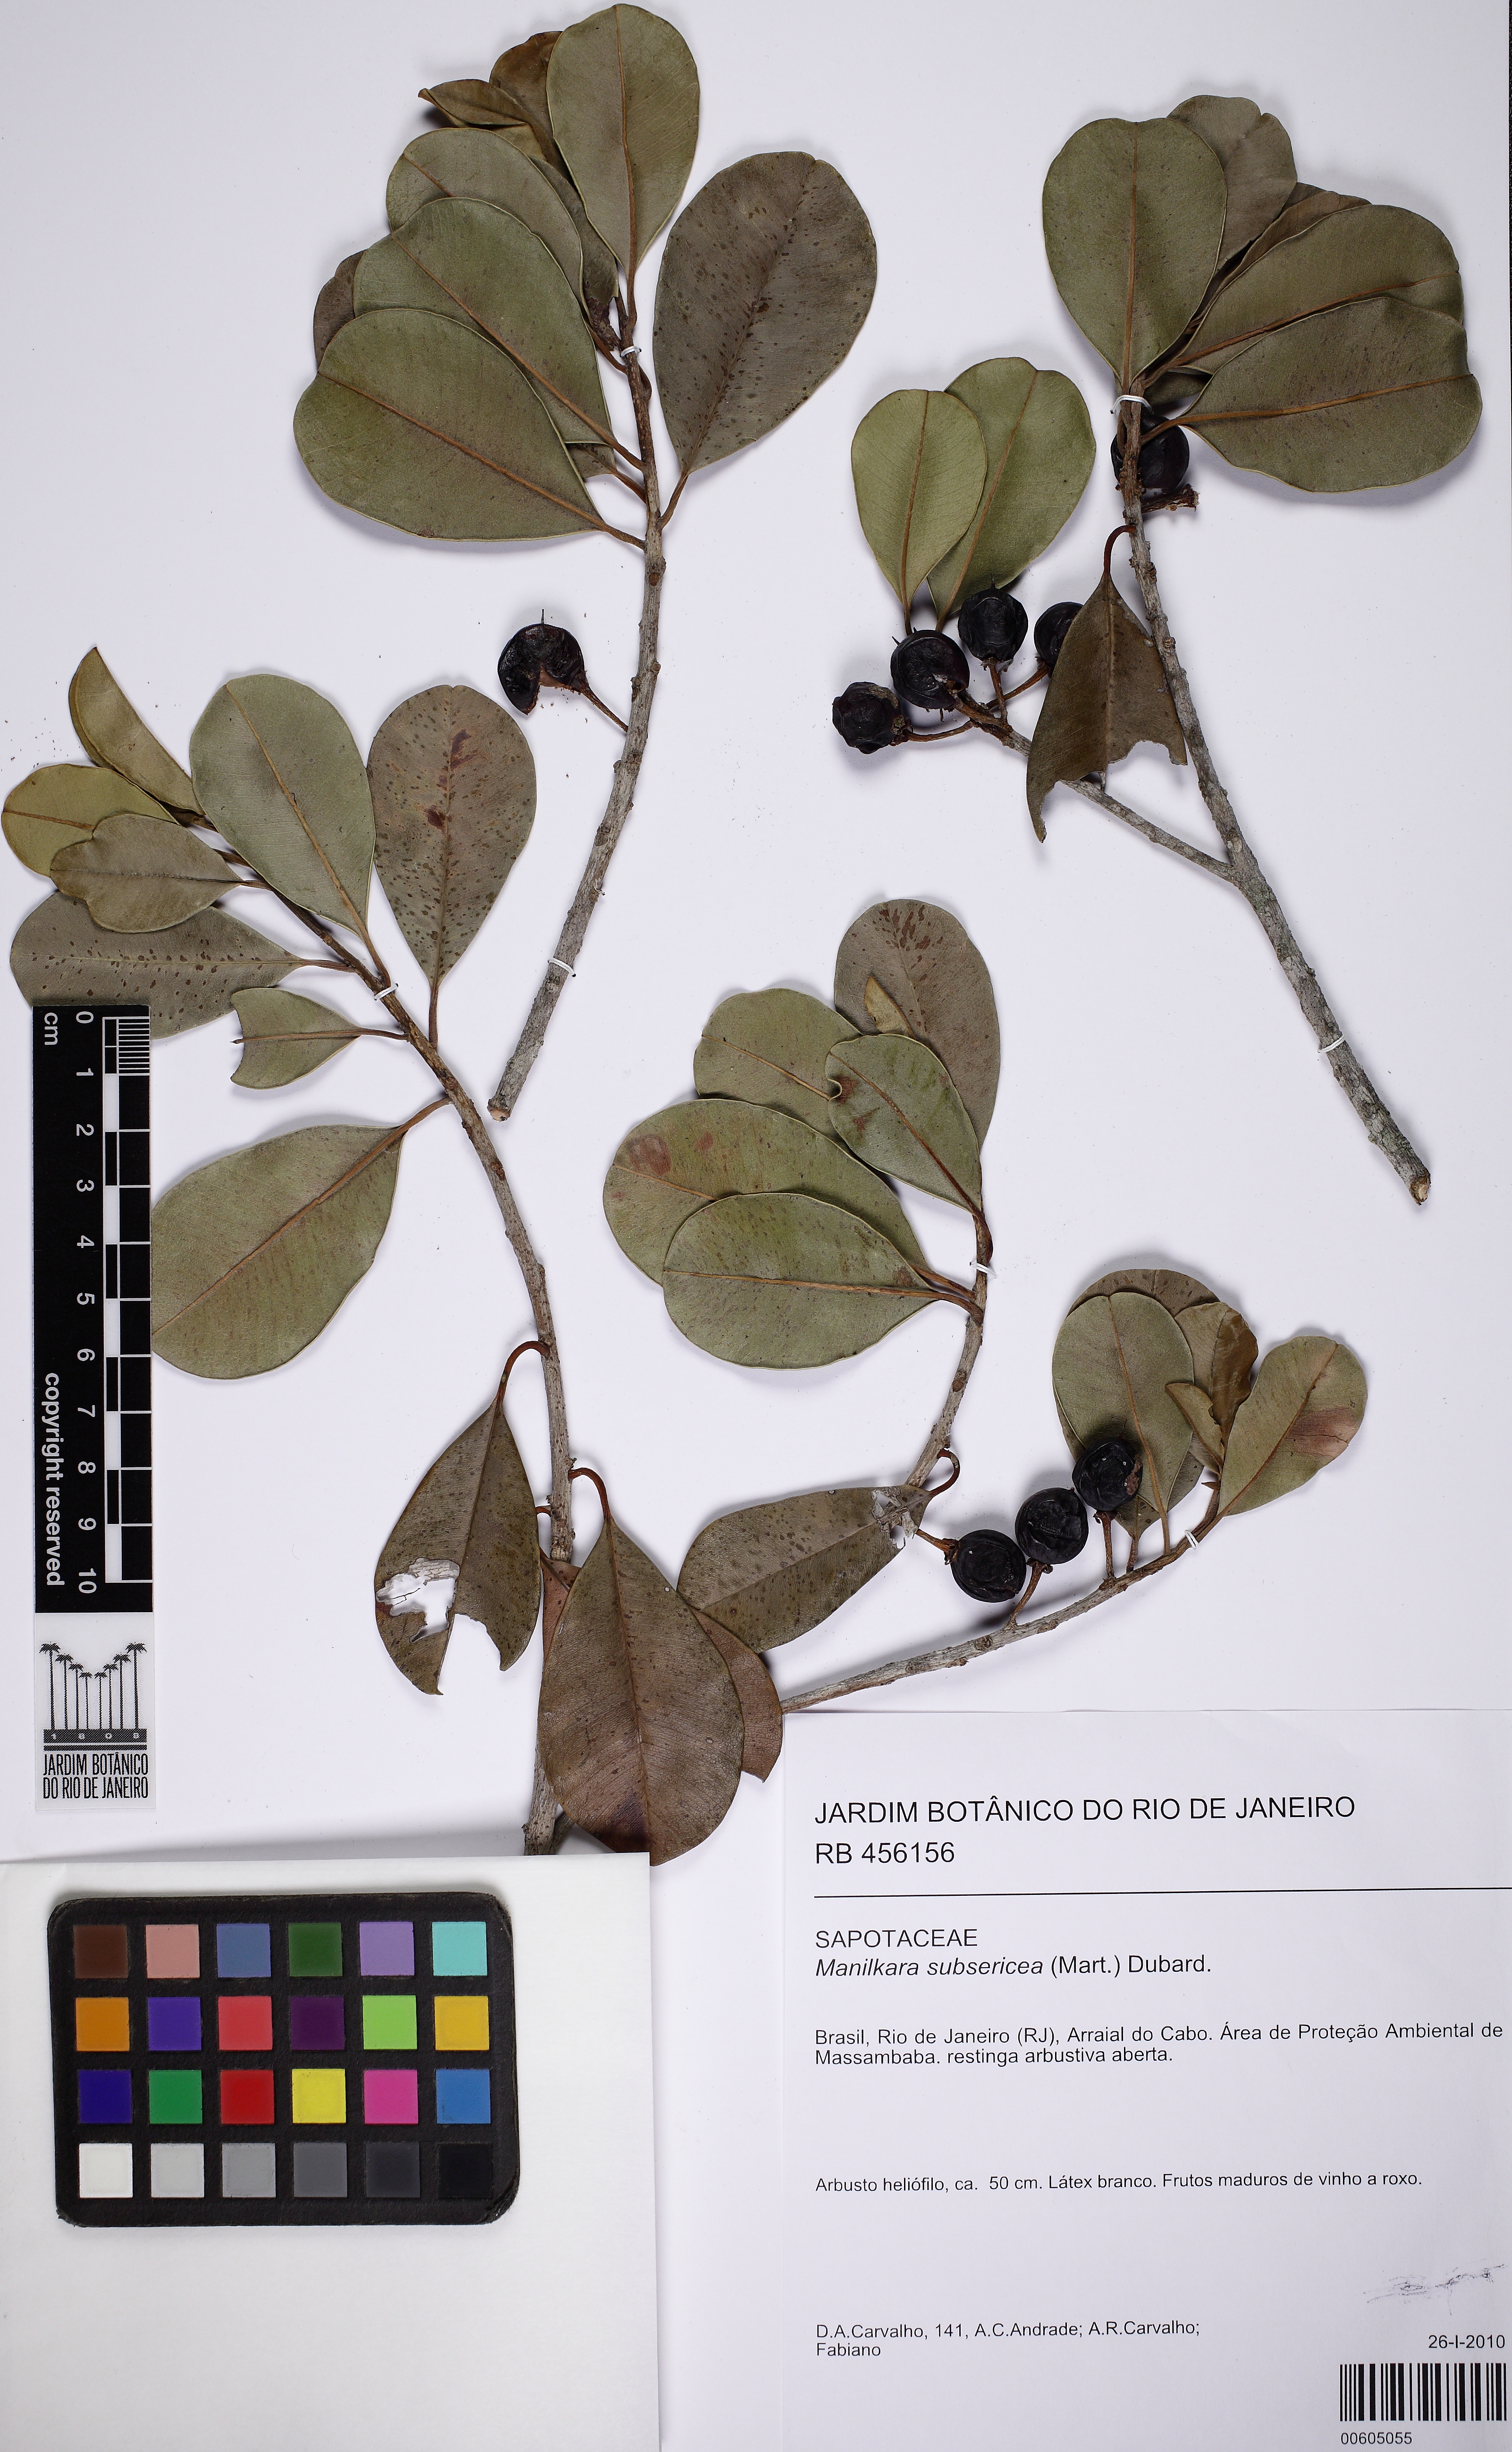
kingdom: Plantae
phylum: Tracheophyta
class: Magnoliopsida
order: Ericales
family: Sapotaceae
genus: Manilkara
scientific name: Manilkara subsericea
